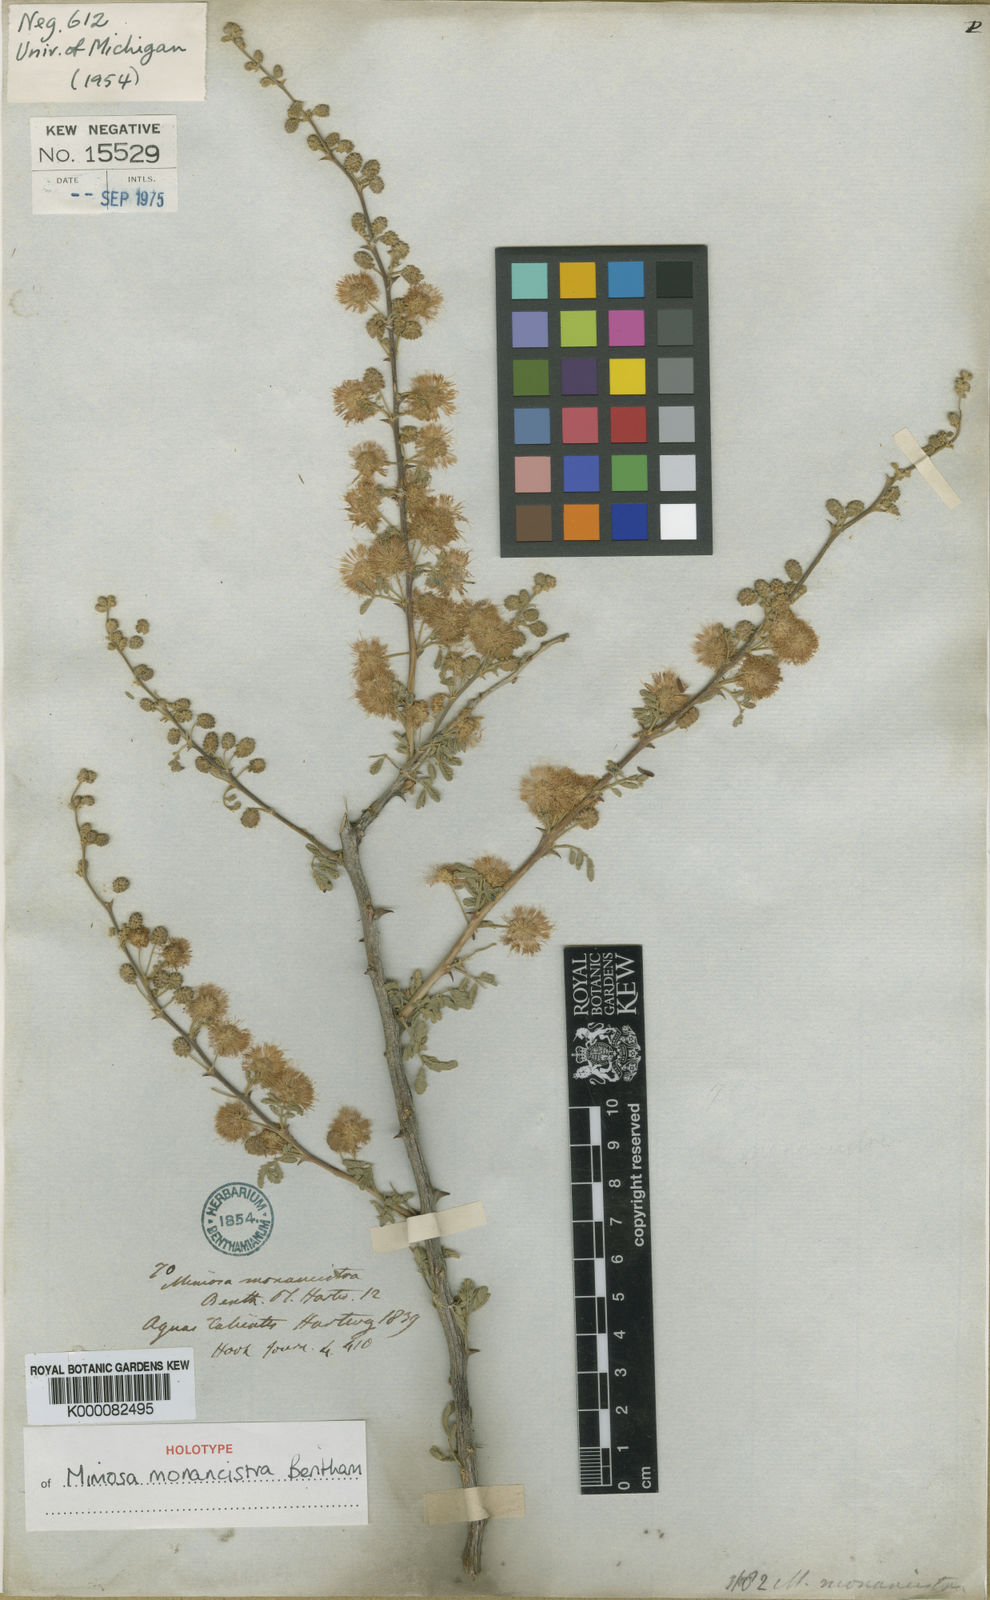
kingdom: Plantae
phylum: Tracheophyta
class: Magnoliopsida
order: Fabales
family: Fabaceae
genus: Mimosa
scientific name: Mimosa monancistra
